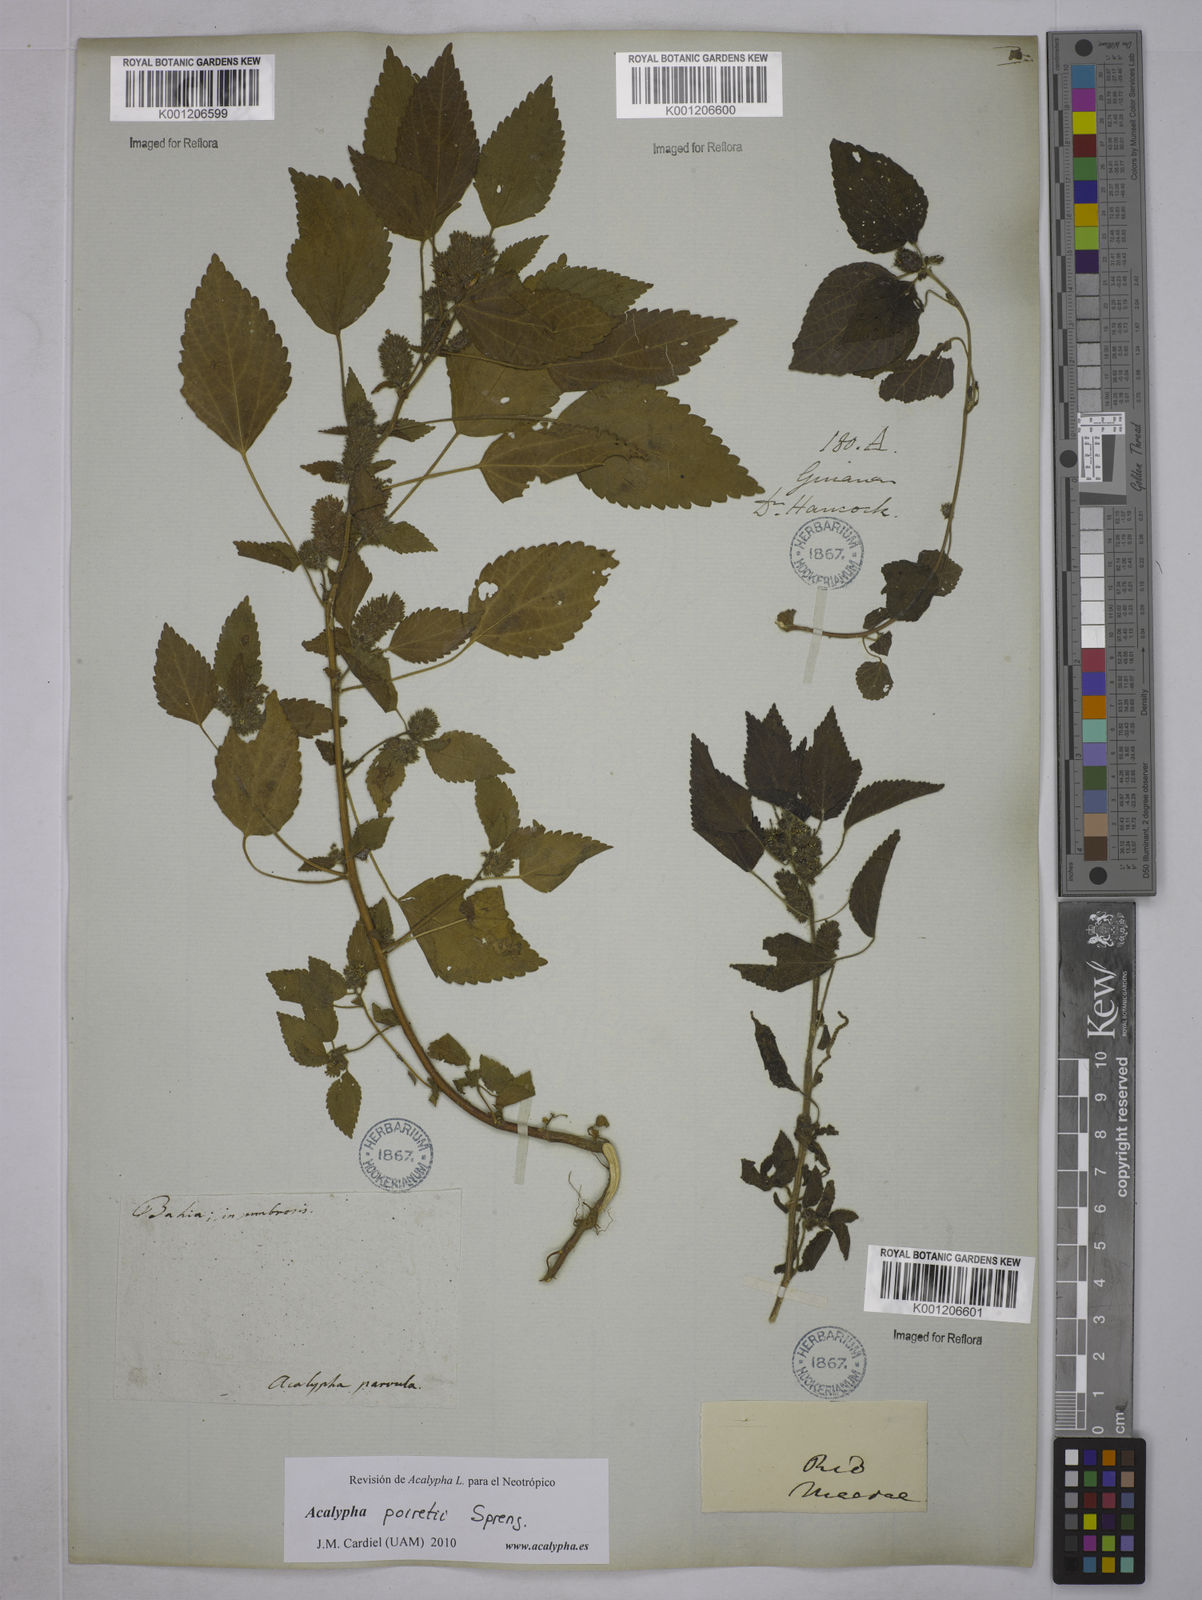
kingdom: Plantae
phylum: Tracheophyta
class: Magnoliopsida
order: Malpighiales
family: Euphorbiaceae
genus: Acalypha
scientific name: Acalypha poiretii
